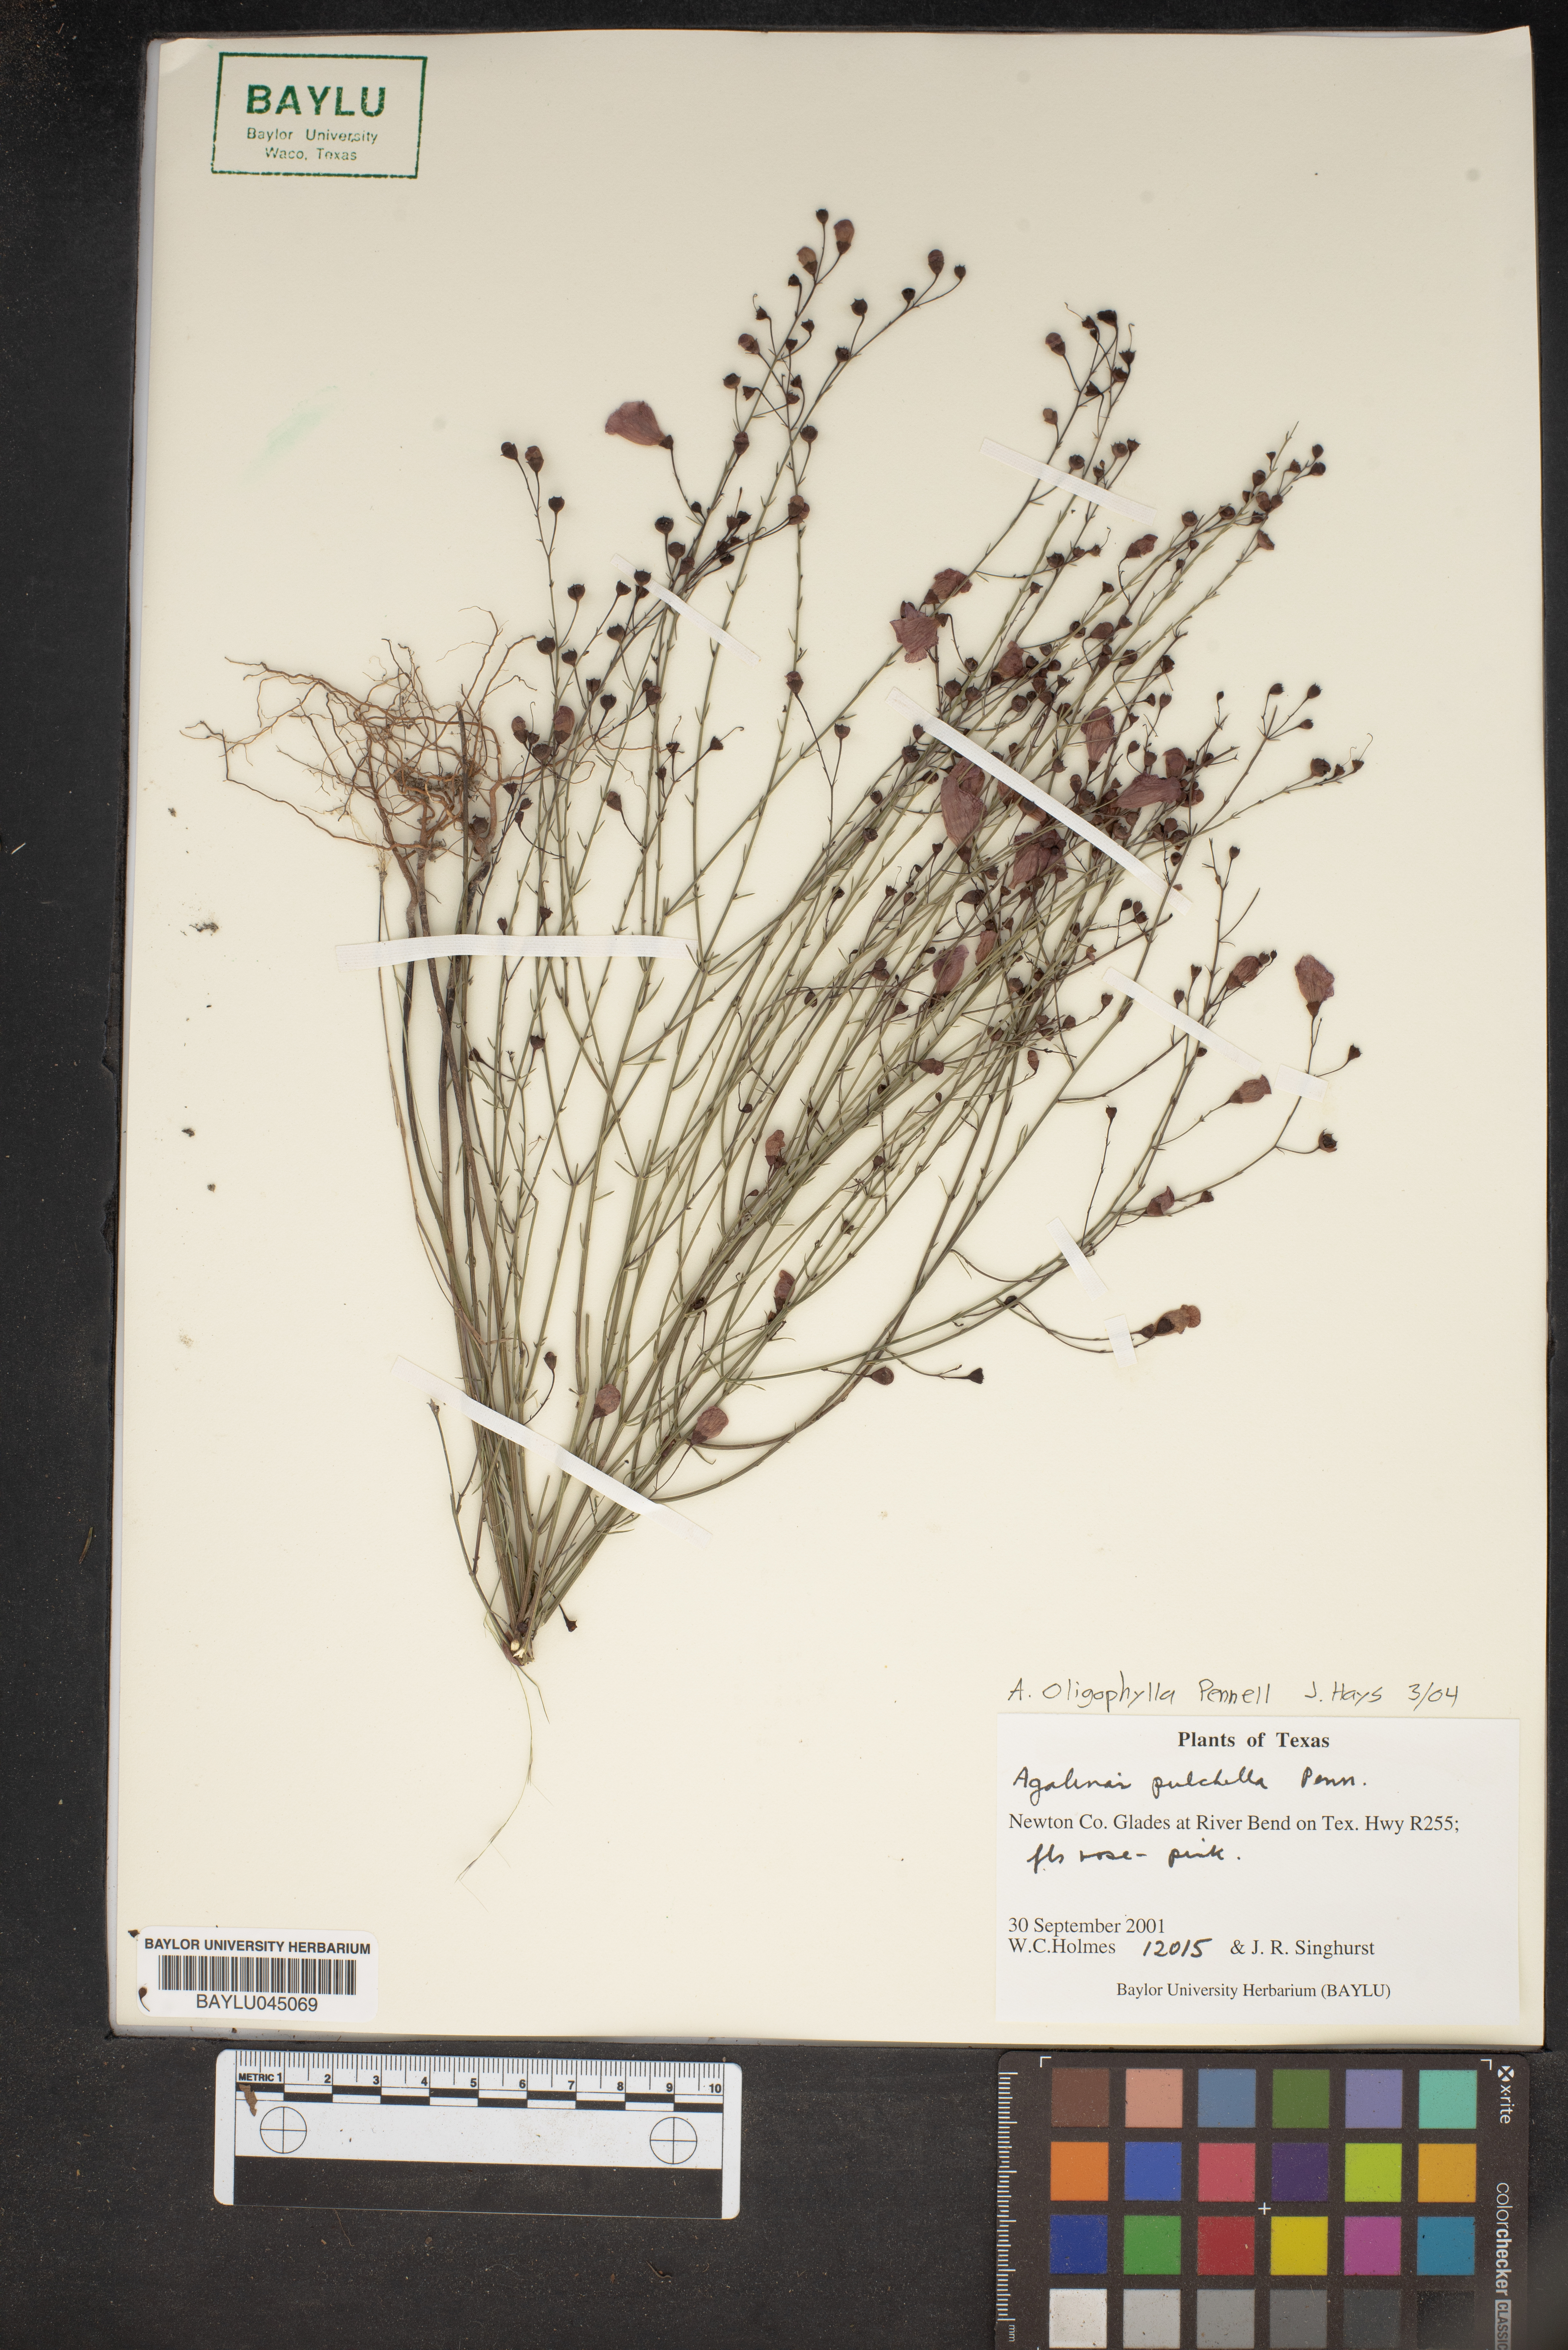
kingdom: Plantae
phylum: Tracheophyta
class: Magnoliopsida
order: Lamiales
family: Orobanchaceae
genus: Agalinis
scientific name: Agalinis pulchella
